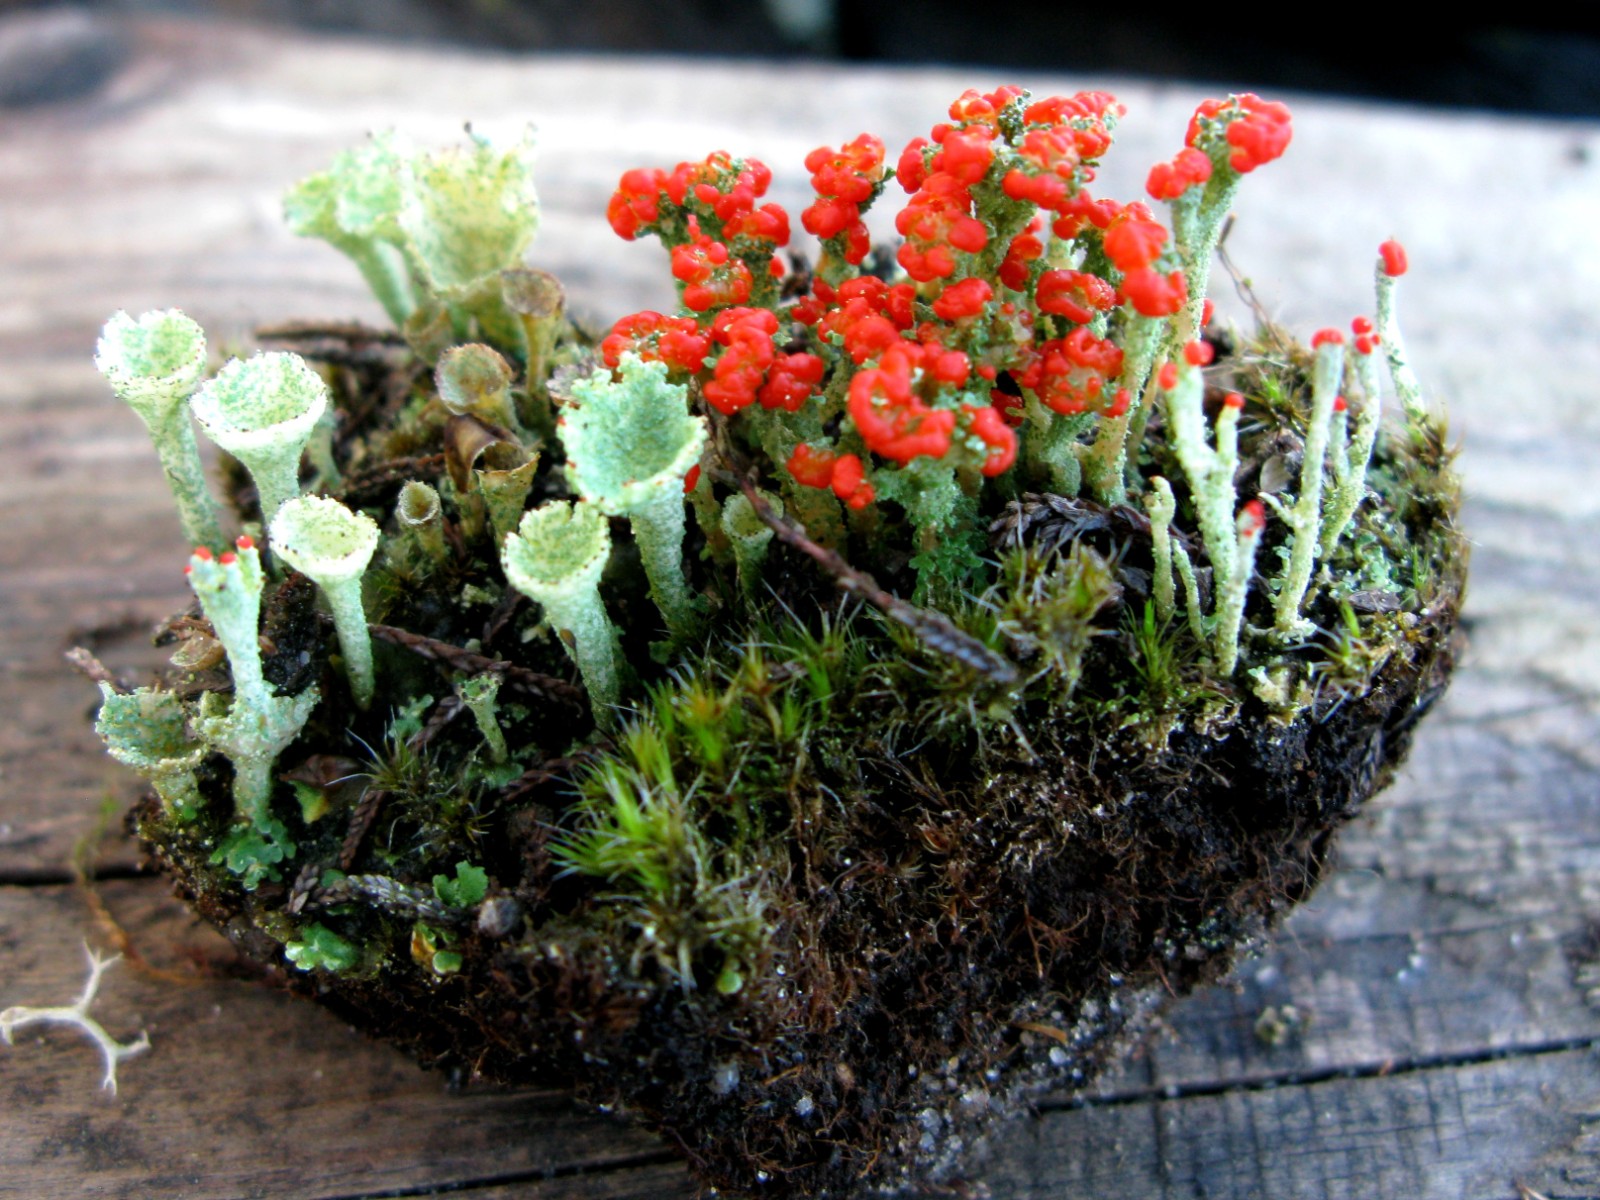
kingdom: Fungi
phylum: Ascomycota
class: Lecanoromycetes
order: Lecanorales
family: Cladoniaceae
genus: Cladonia
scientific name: Cladonia floerkeana
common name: lakrød bægerlav
